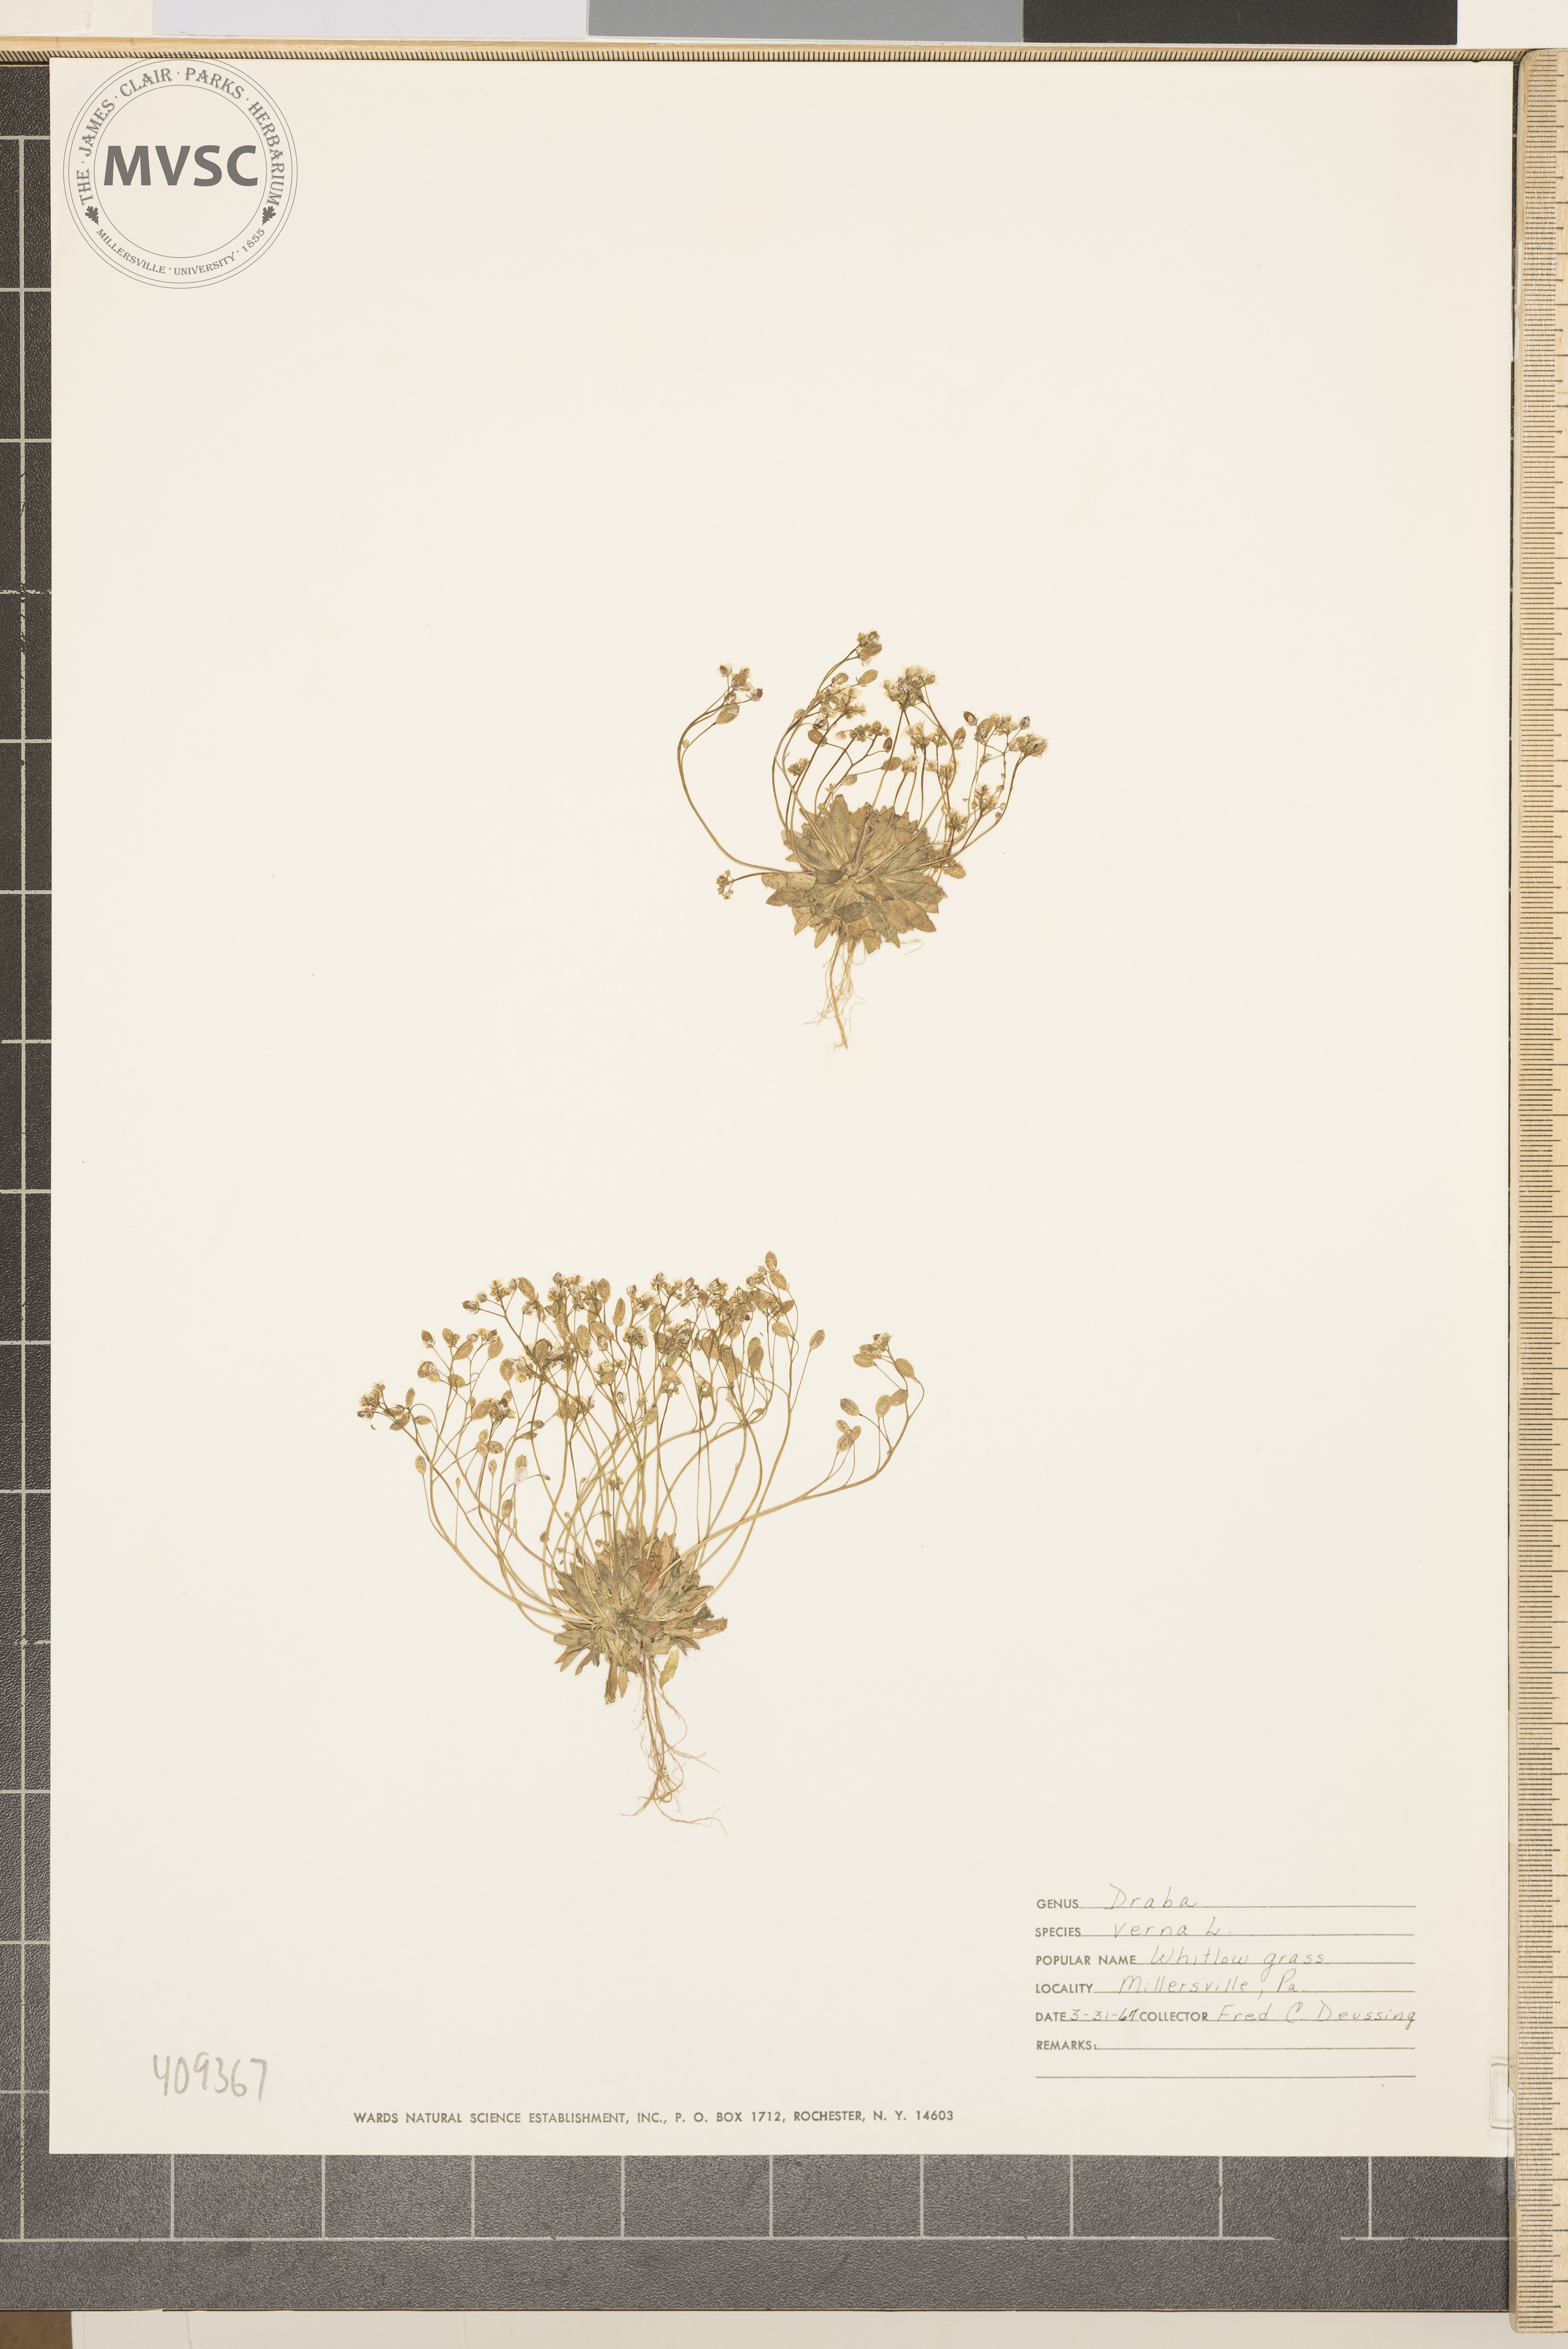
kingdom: Plantae
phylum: Tracheophyta
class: Magnoliopsida
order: Brassicales
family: Brassicaceae
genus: Draba
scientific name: Draba verna
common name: Spring draba
